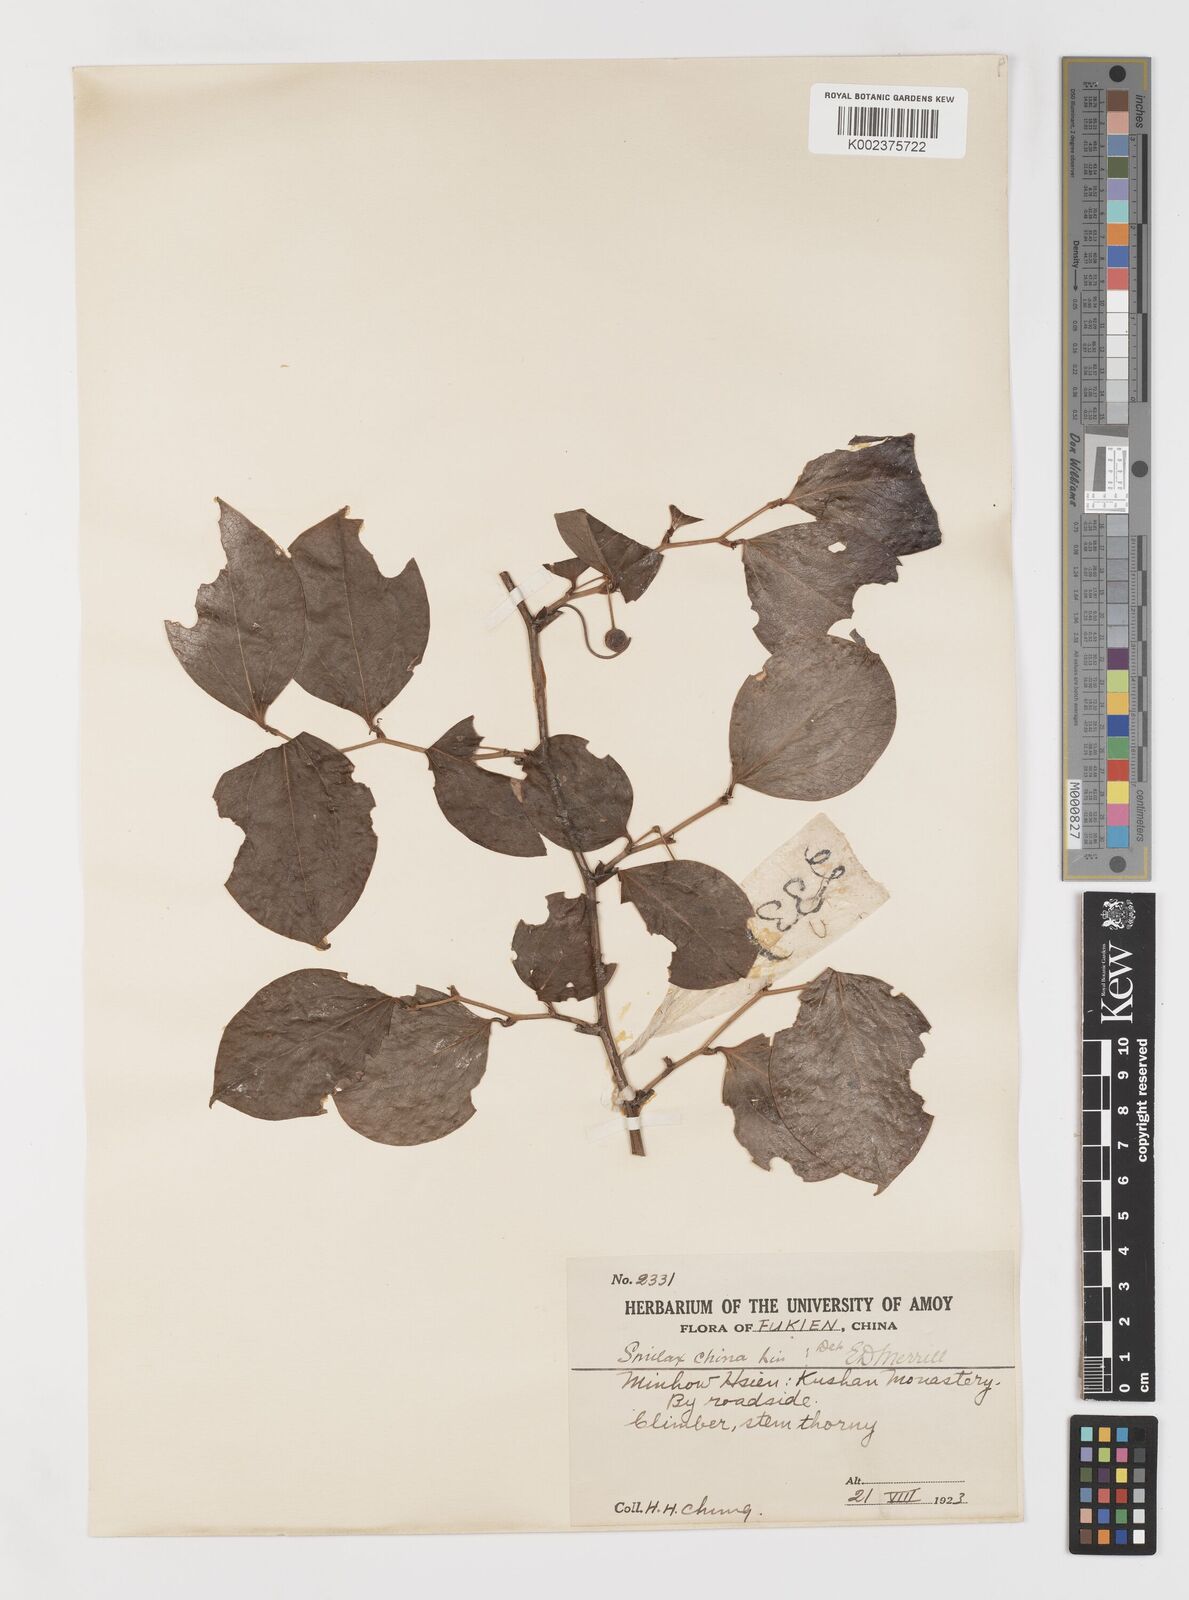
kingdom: Plantae
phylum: Tracheophyta
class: Liliopsida
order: Liliales
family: Smilacaceae
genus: Smilax
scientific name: Smilax
